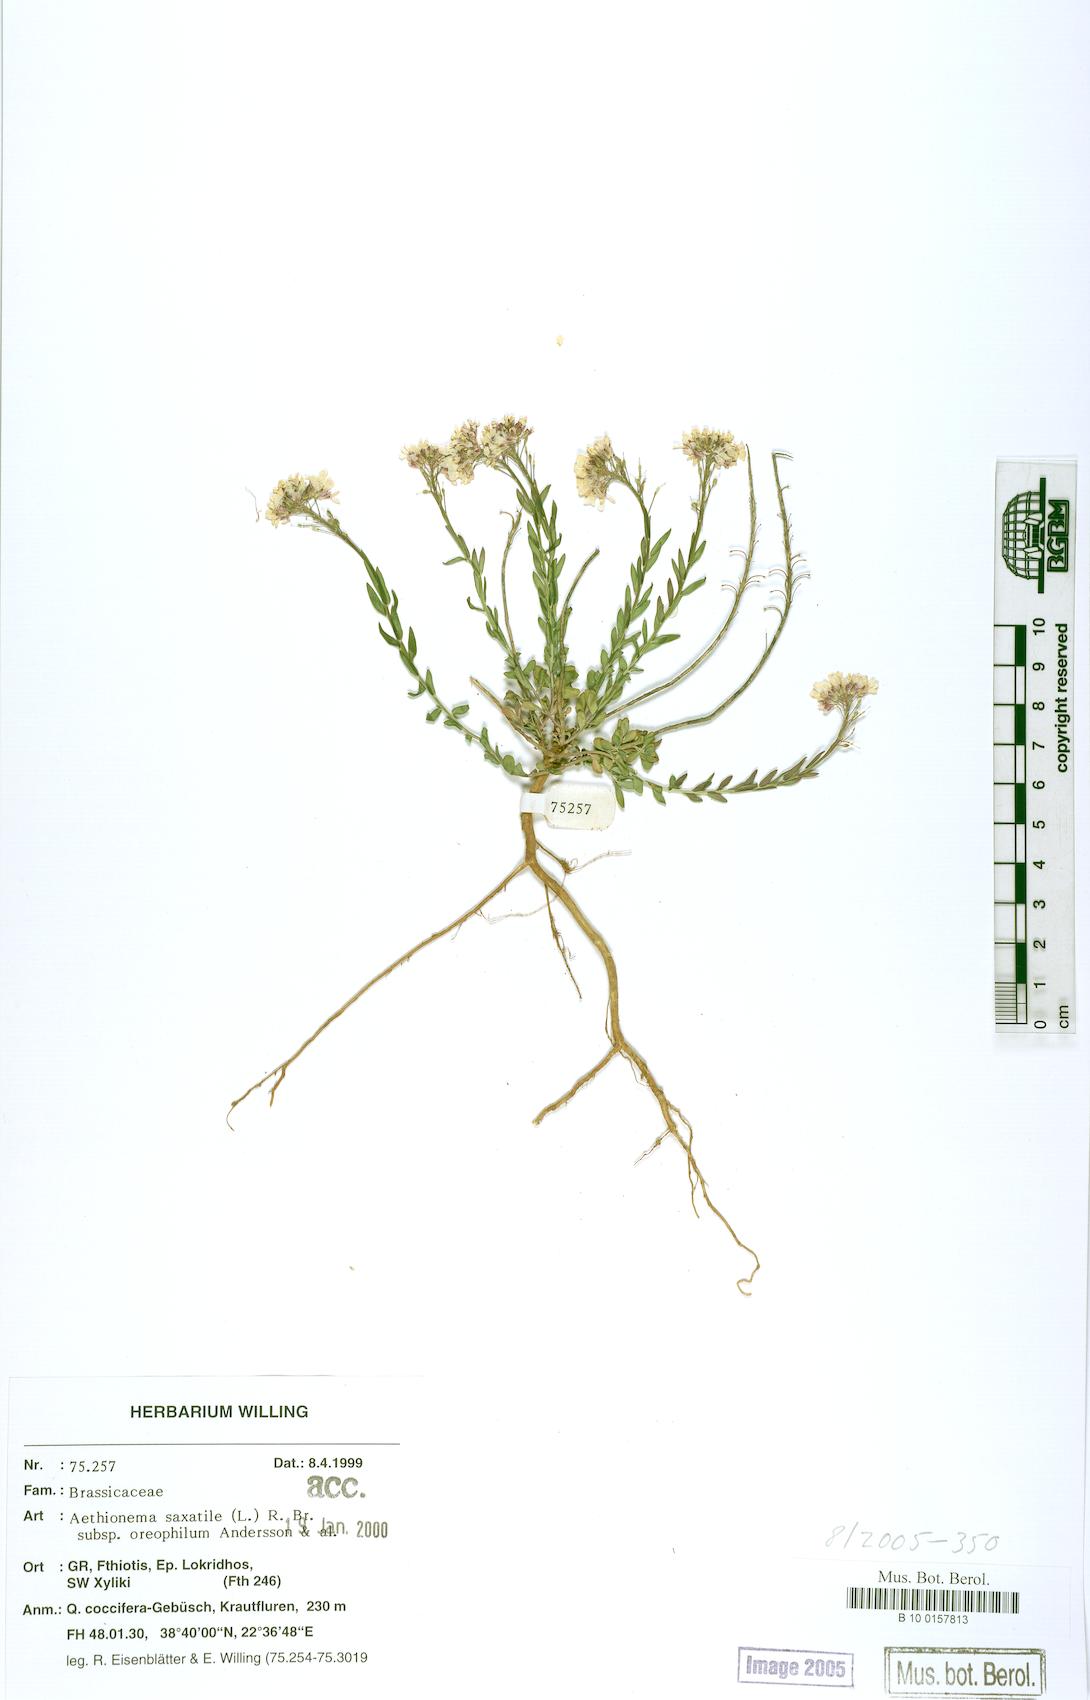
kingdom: Plantae
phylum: Tracheophyta
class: Magnoliopsida
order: Brassicales
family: Brassicaceae
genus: Aethionema
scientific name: Aethionema saxatile
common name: Burnt candytuft
